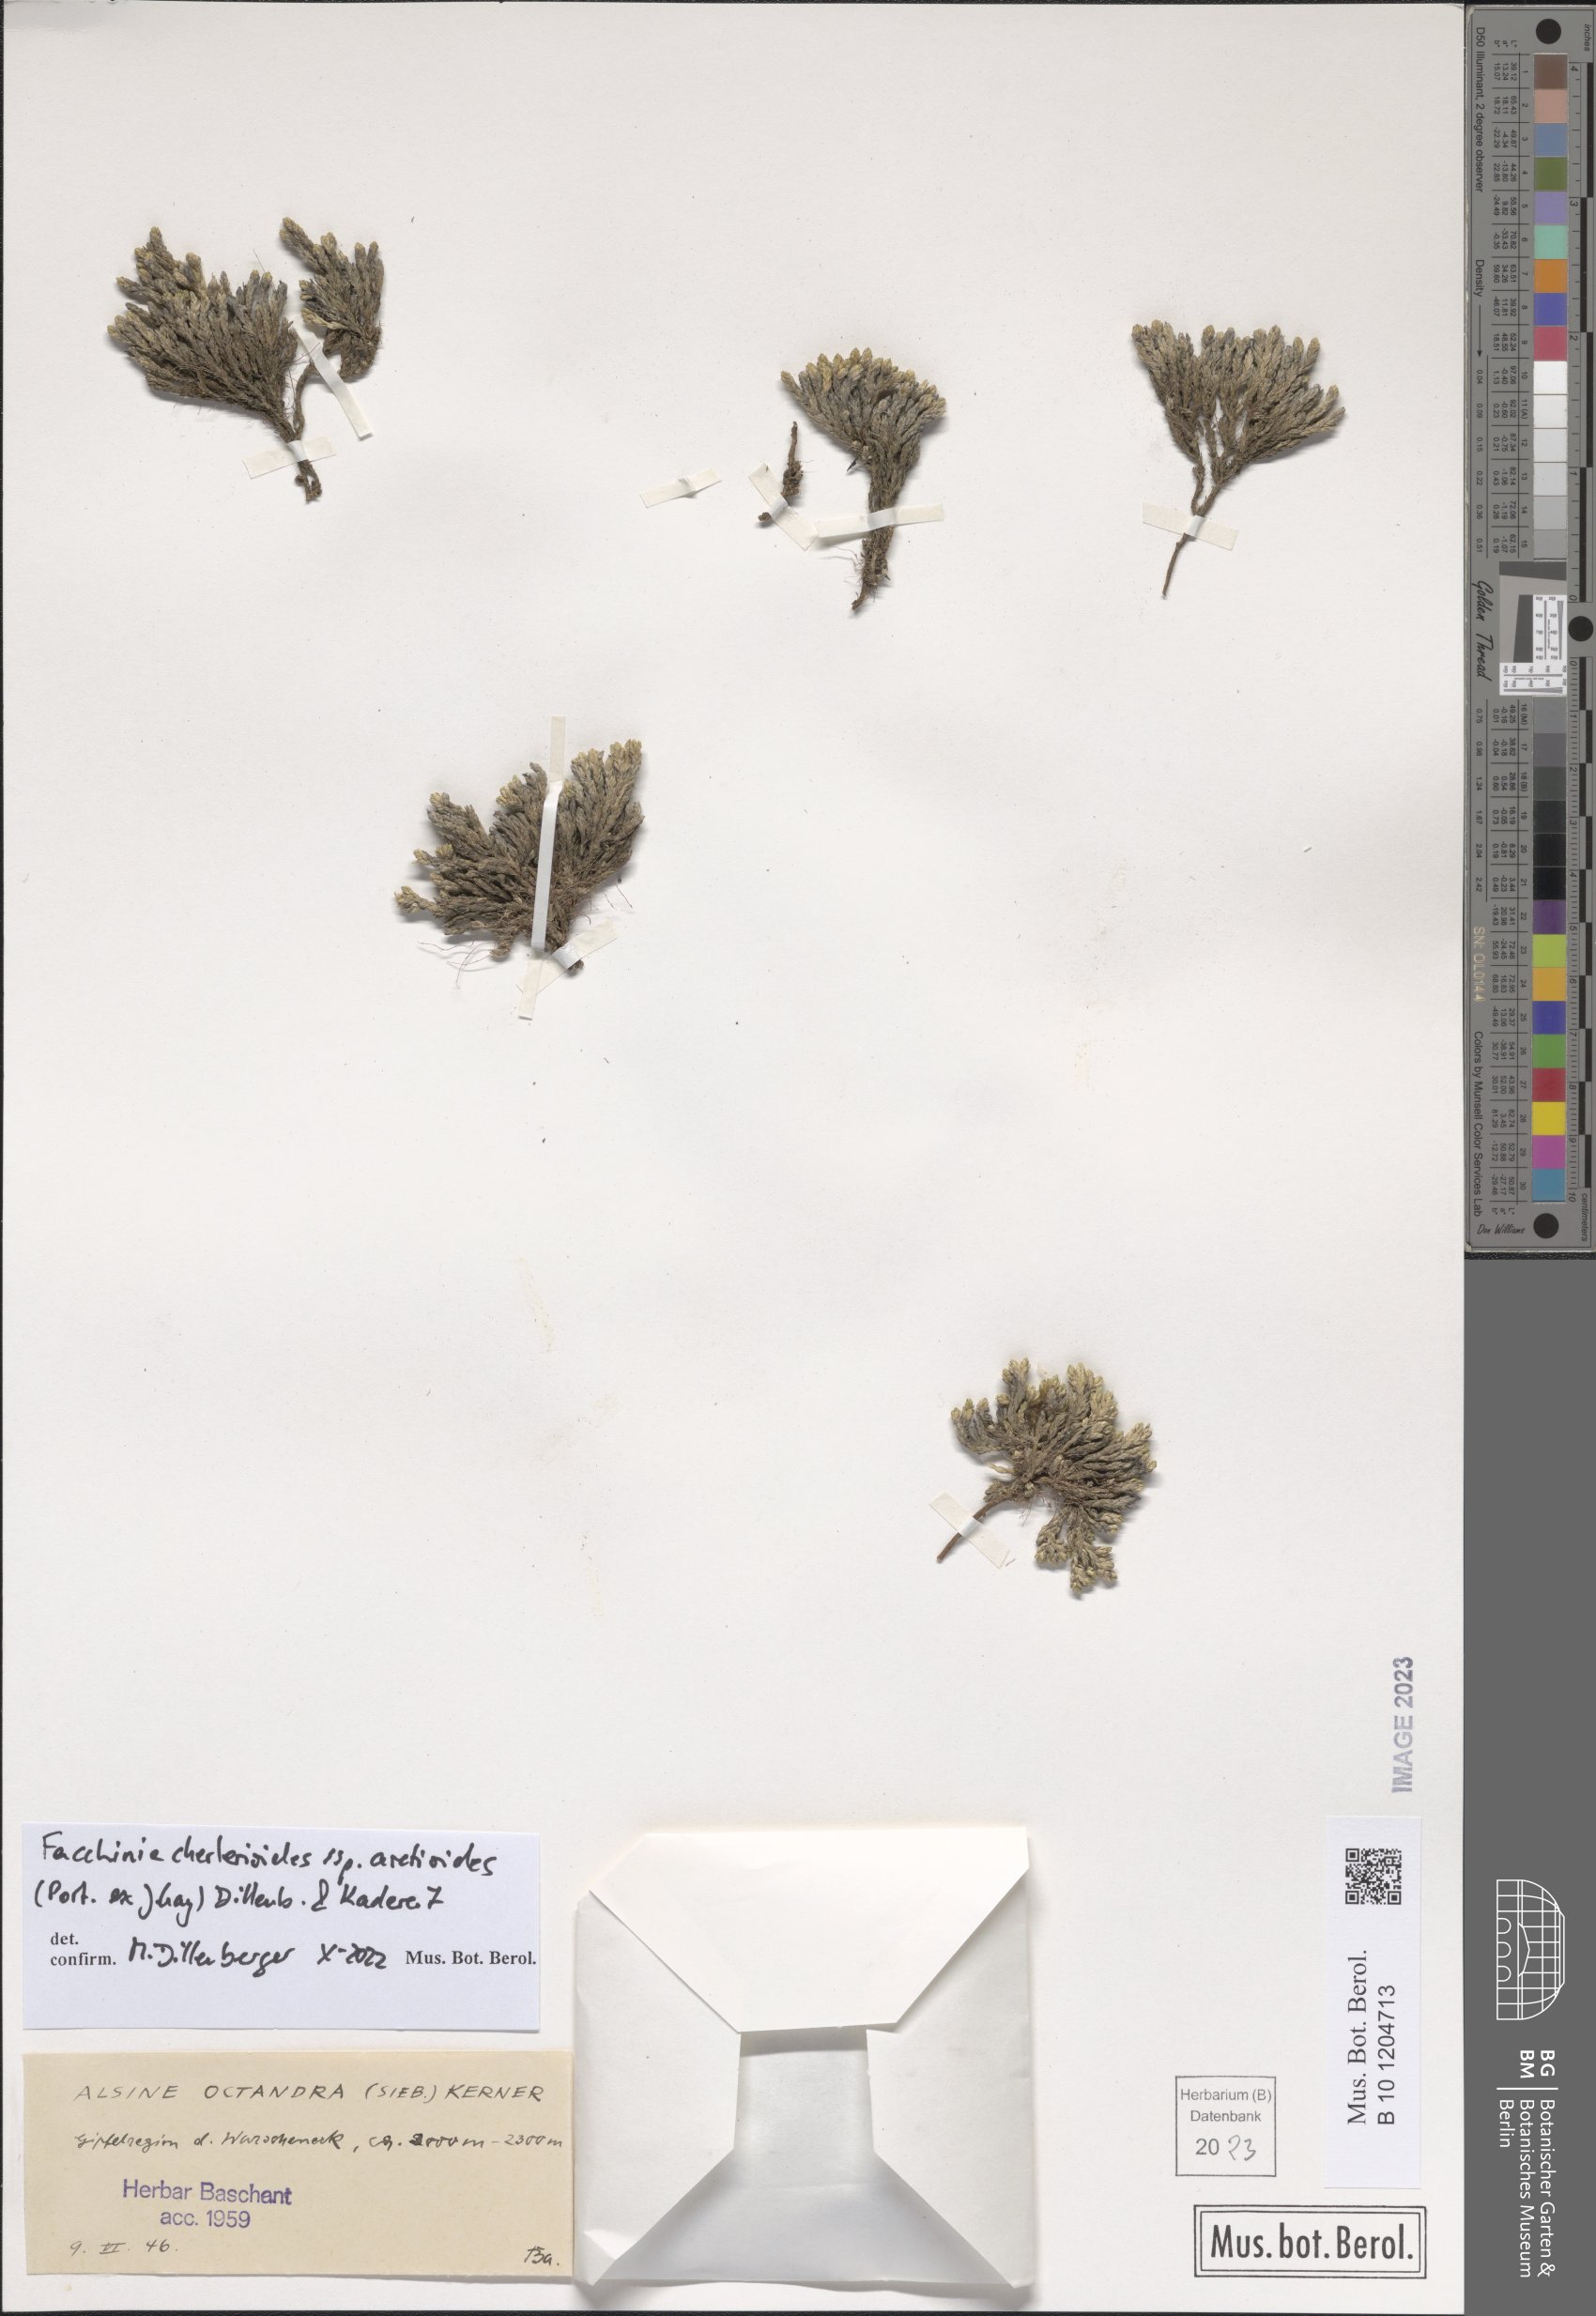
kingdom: Plantae
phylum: Tracheophyta
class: Magnoliopsida
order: Caryophyllales
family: Caryophyllaceae
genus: Facchinia
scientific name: Facchinia cherlerioides
